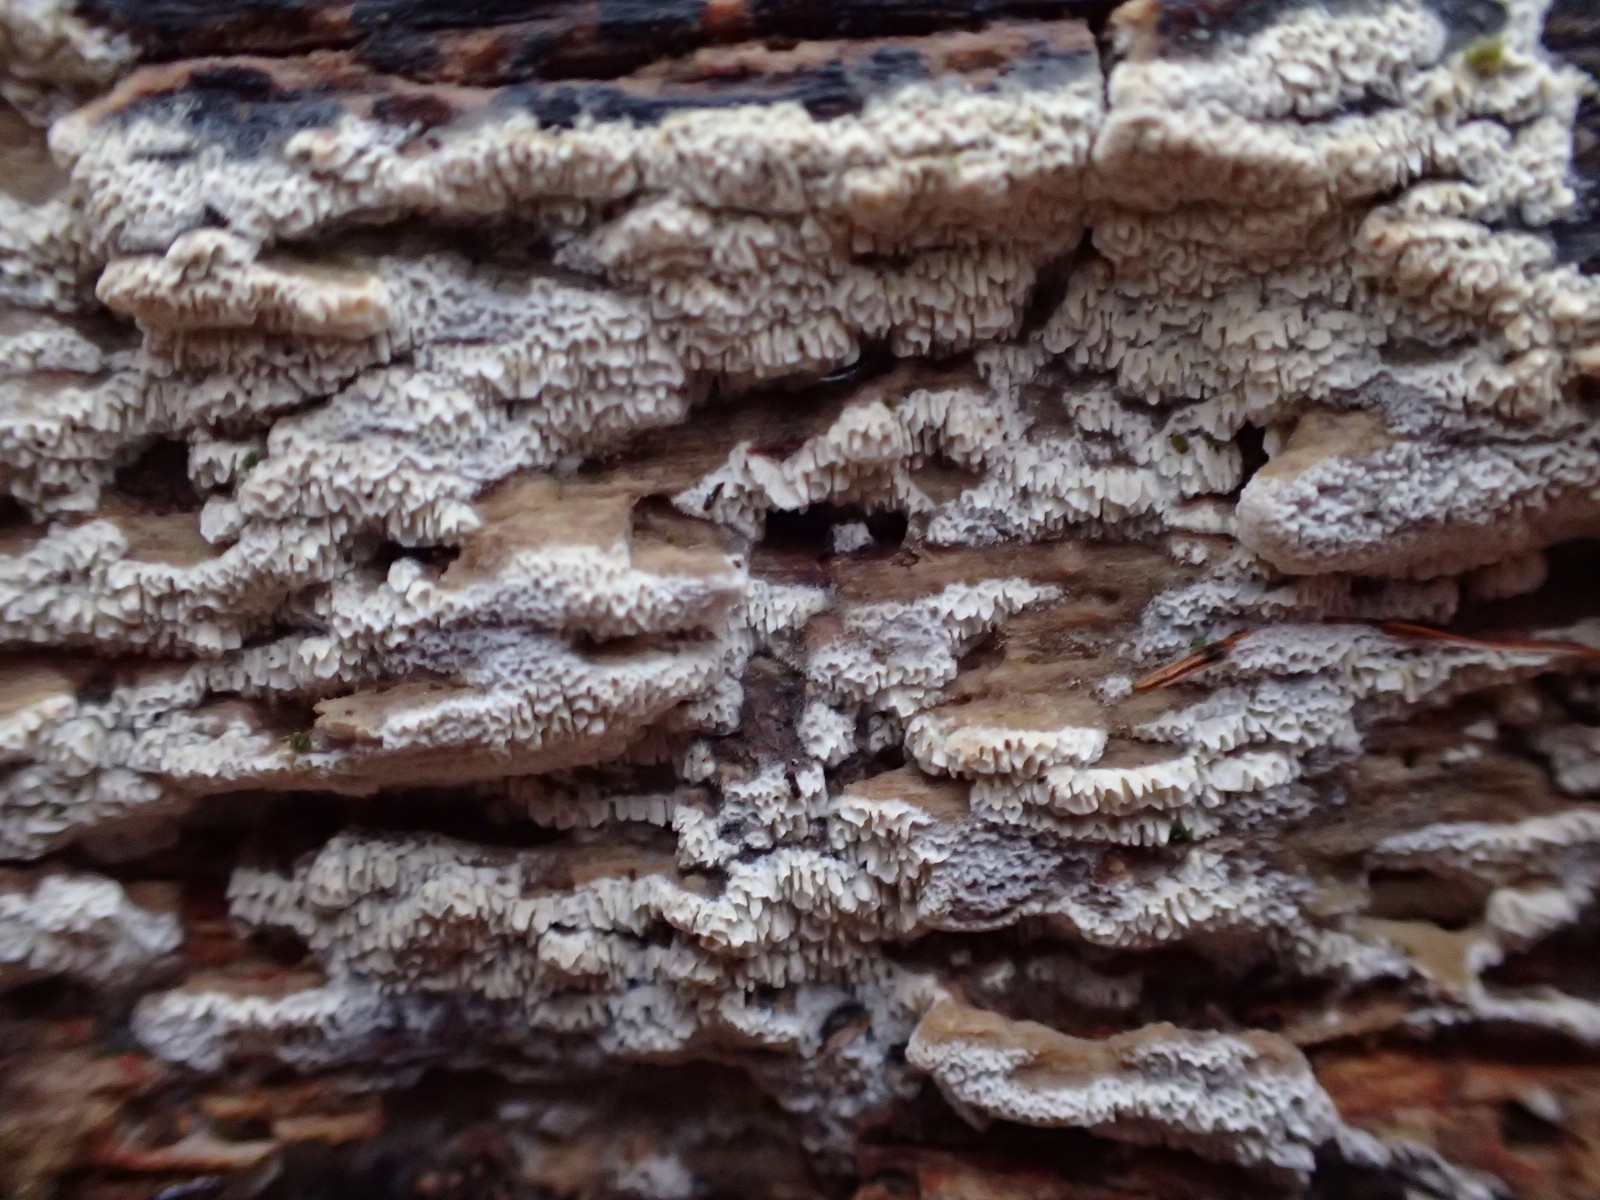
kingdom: Fungi
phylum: Basidiomycota
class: Agaricomycetes
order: Hymenochaetales
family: Schizoporaceae
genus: Xylodon
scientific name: Xylodon subtropicus
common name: labyrint-tandsvamp
